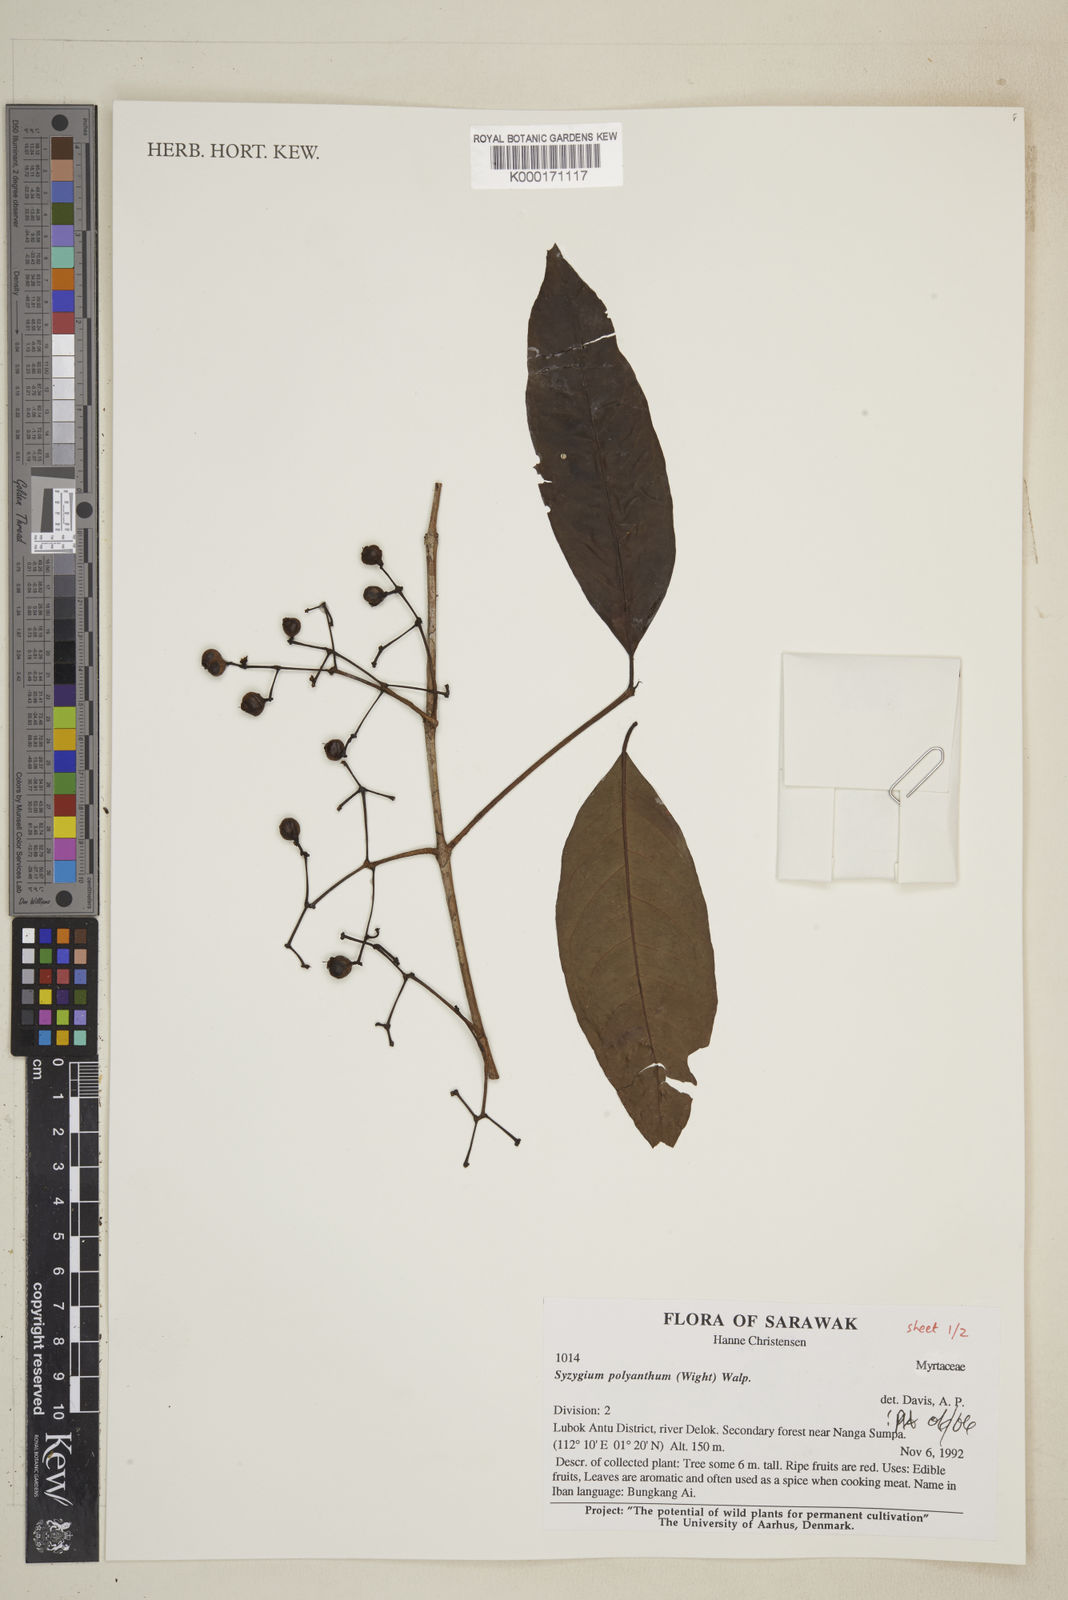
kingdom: Plantae
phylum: Tracheophyta
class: Magnoliopsida
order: Myrtales
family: Myrtaceae
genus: Syzygium
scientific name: Syzygium polyanthum
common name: Indonesian bayleaf
